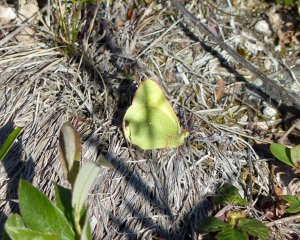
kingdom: Animalia
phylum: Arthropoda
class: Insecta
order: Lepidoptera
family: Pieridae
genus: Colias
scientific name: Colias palaeno
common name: Chippewa Sulphur
